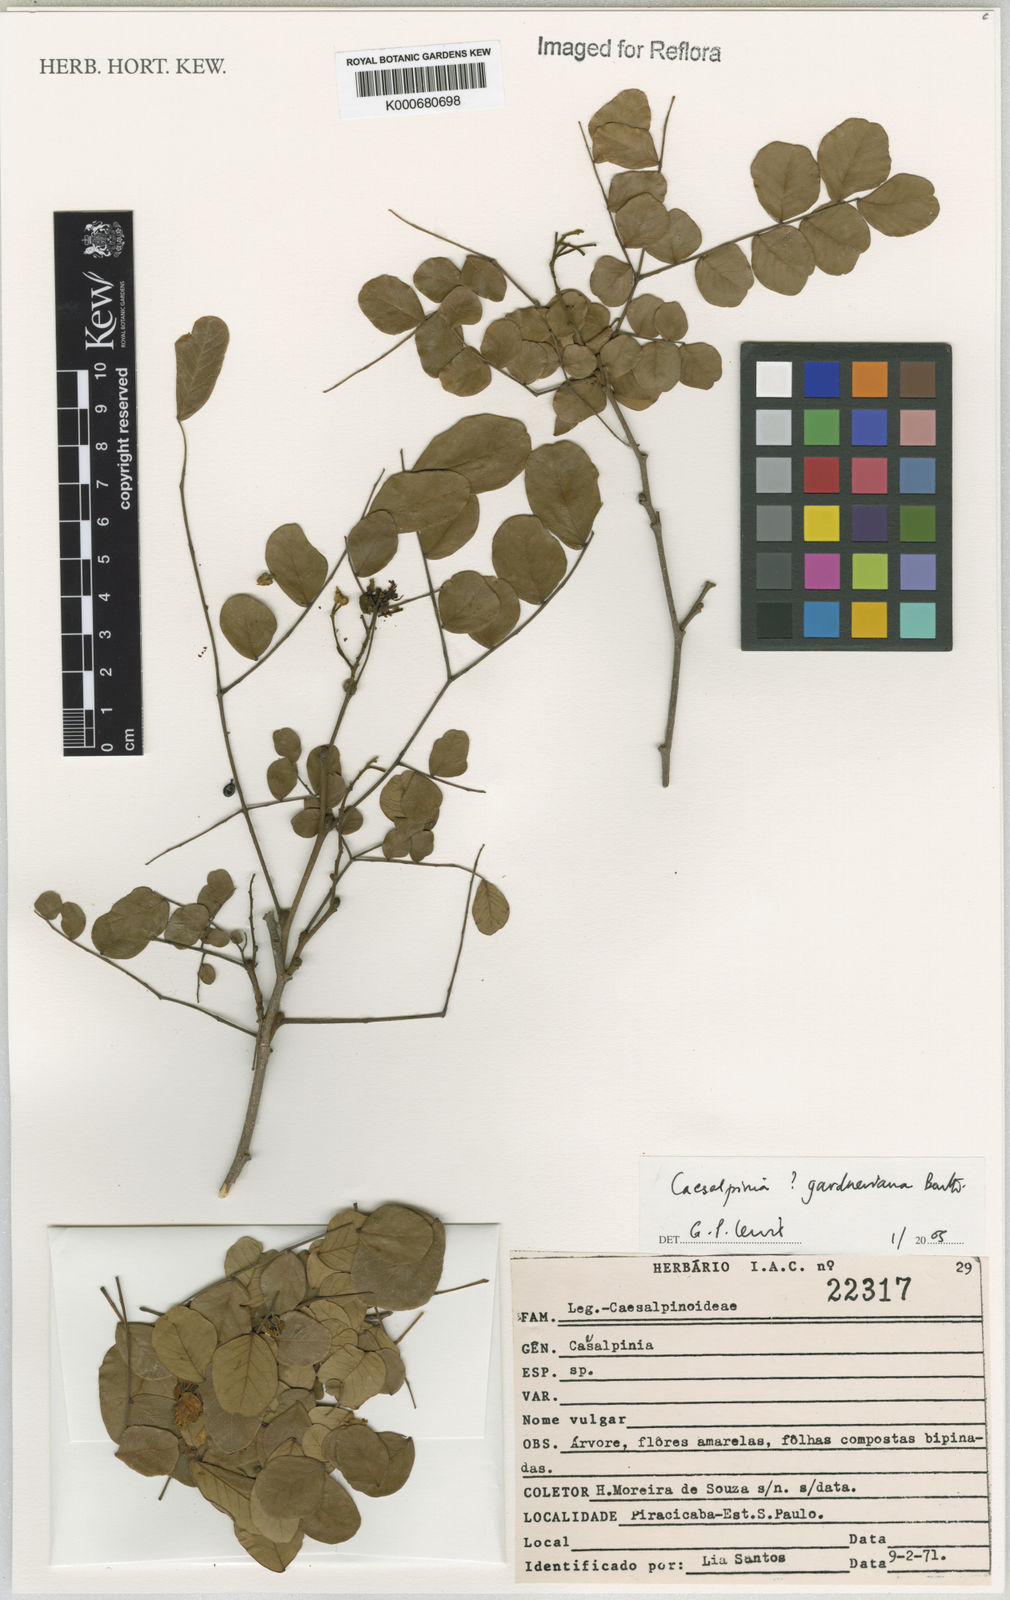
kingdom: Plantae
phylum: Tracheophyta
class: Magnoliopsida
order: Fabales
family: Fabaceae
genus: Cenostigma
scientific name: Cenostigma nordestinum
